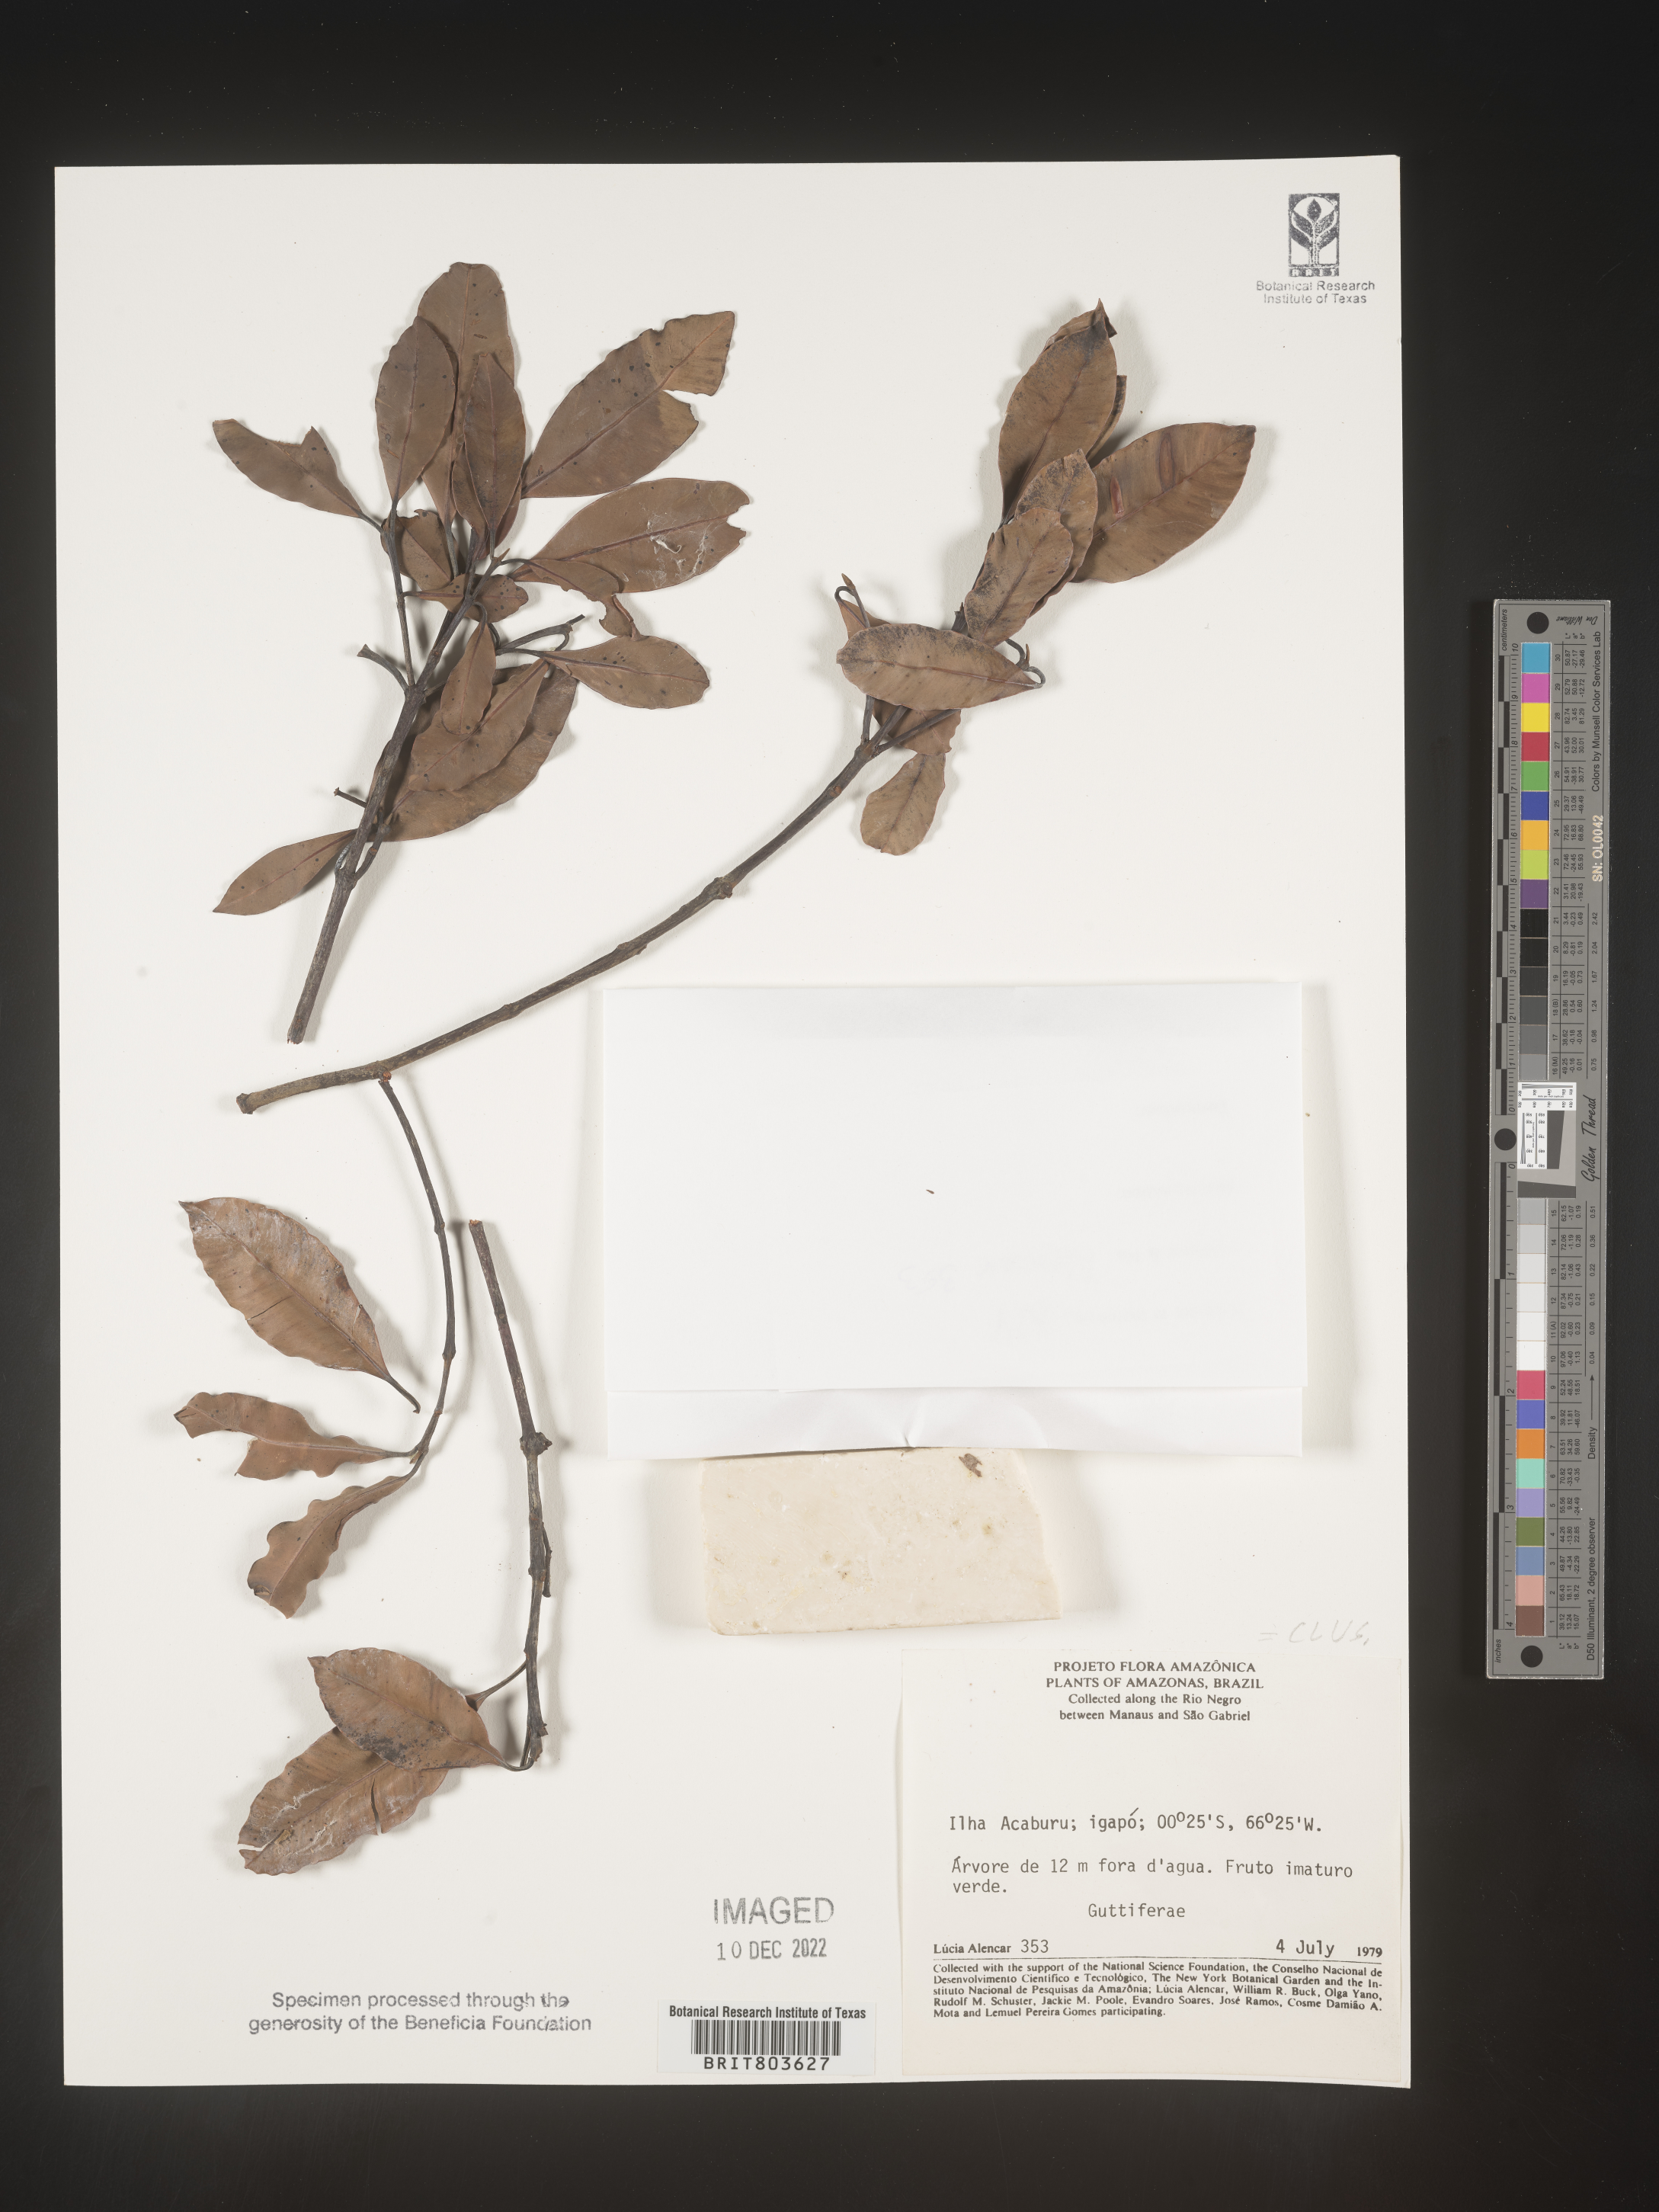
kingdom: Plantae
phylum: Tracheophyta
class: Magnoliopsida
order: Malpighiales
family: Clusiaceae
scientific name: Clusiaceae
